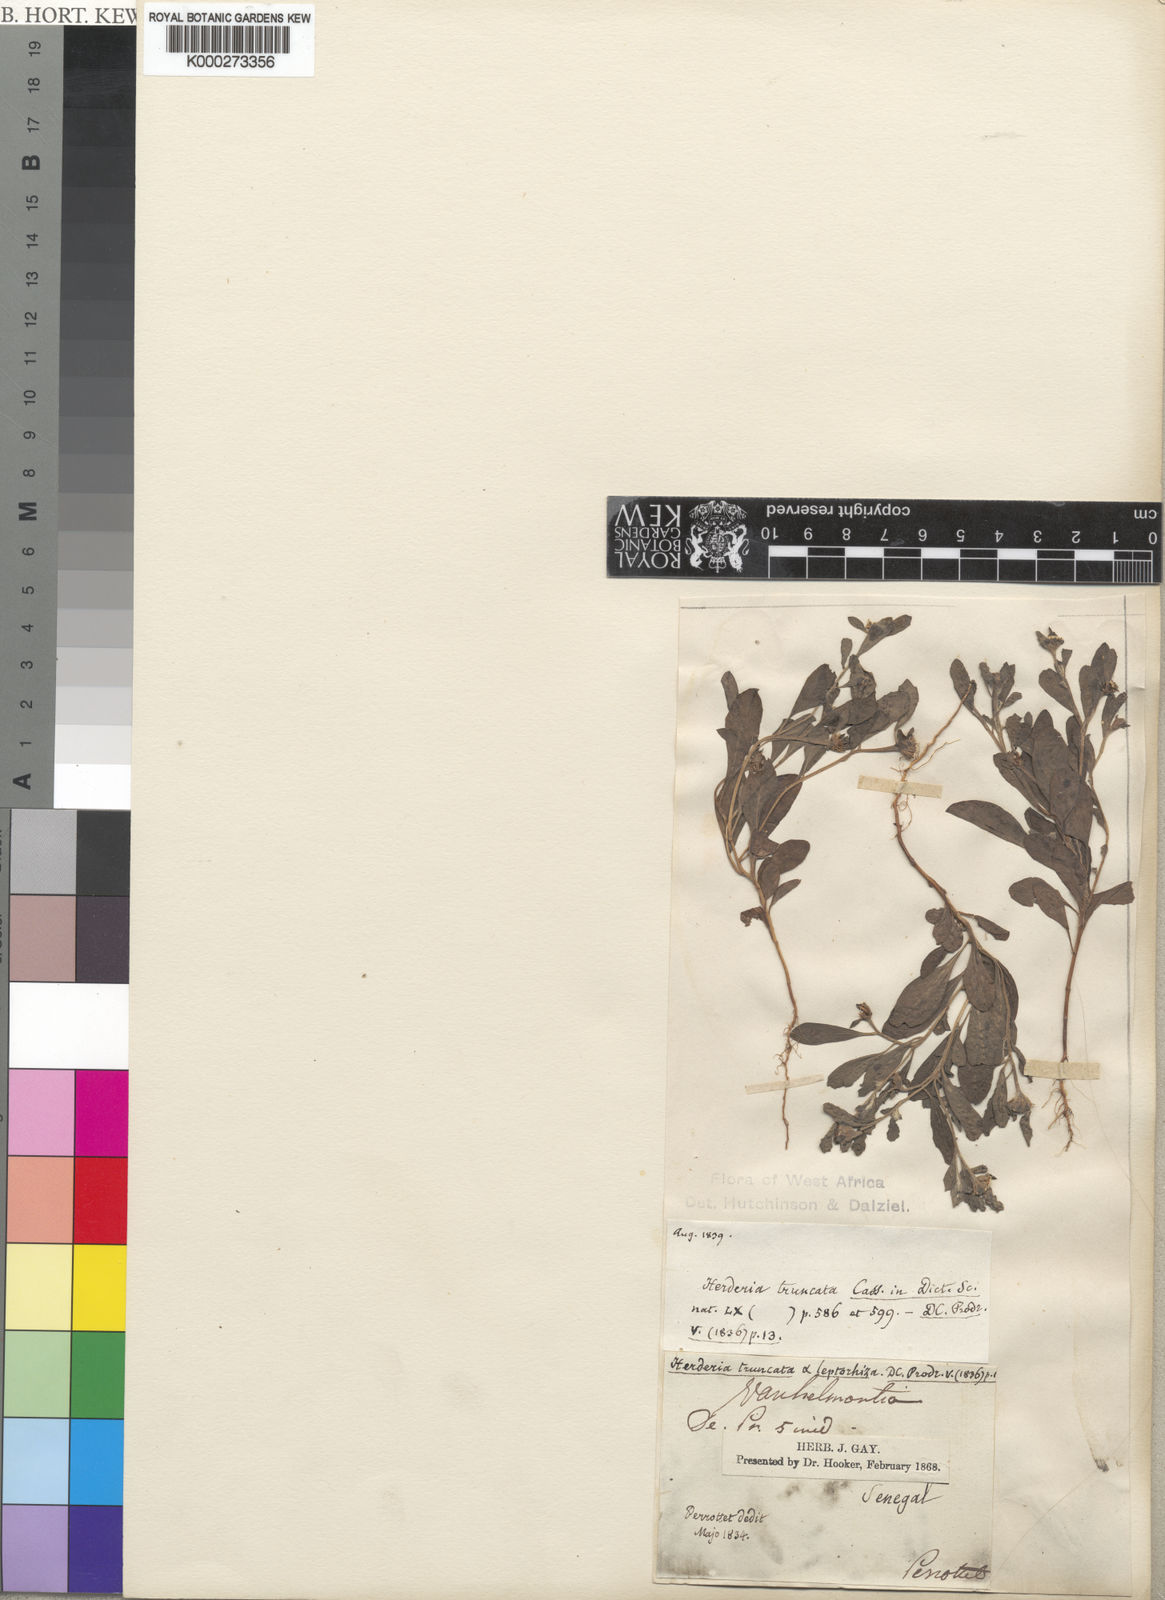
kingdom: Plantae
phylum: Tracheophyta
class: Magnoliopsida
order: Asterales
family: Asteraceae
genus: Herderia
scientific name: Herderia truncata
